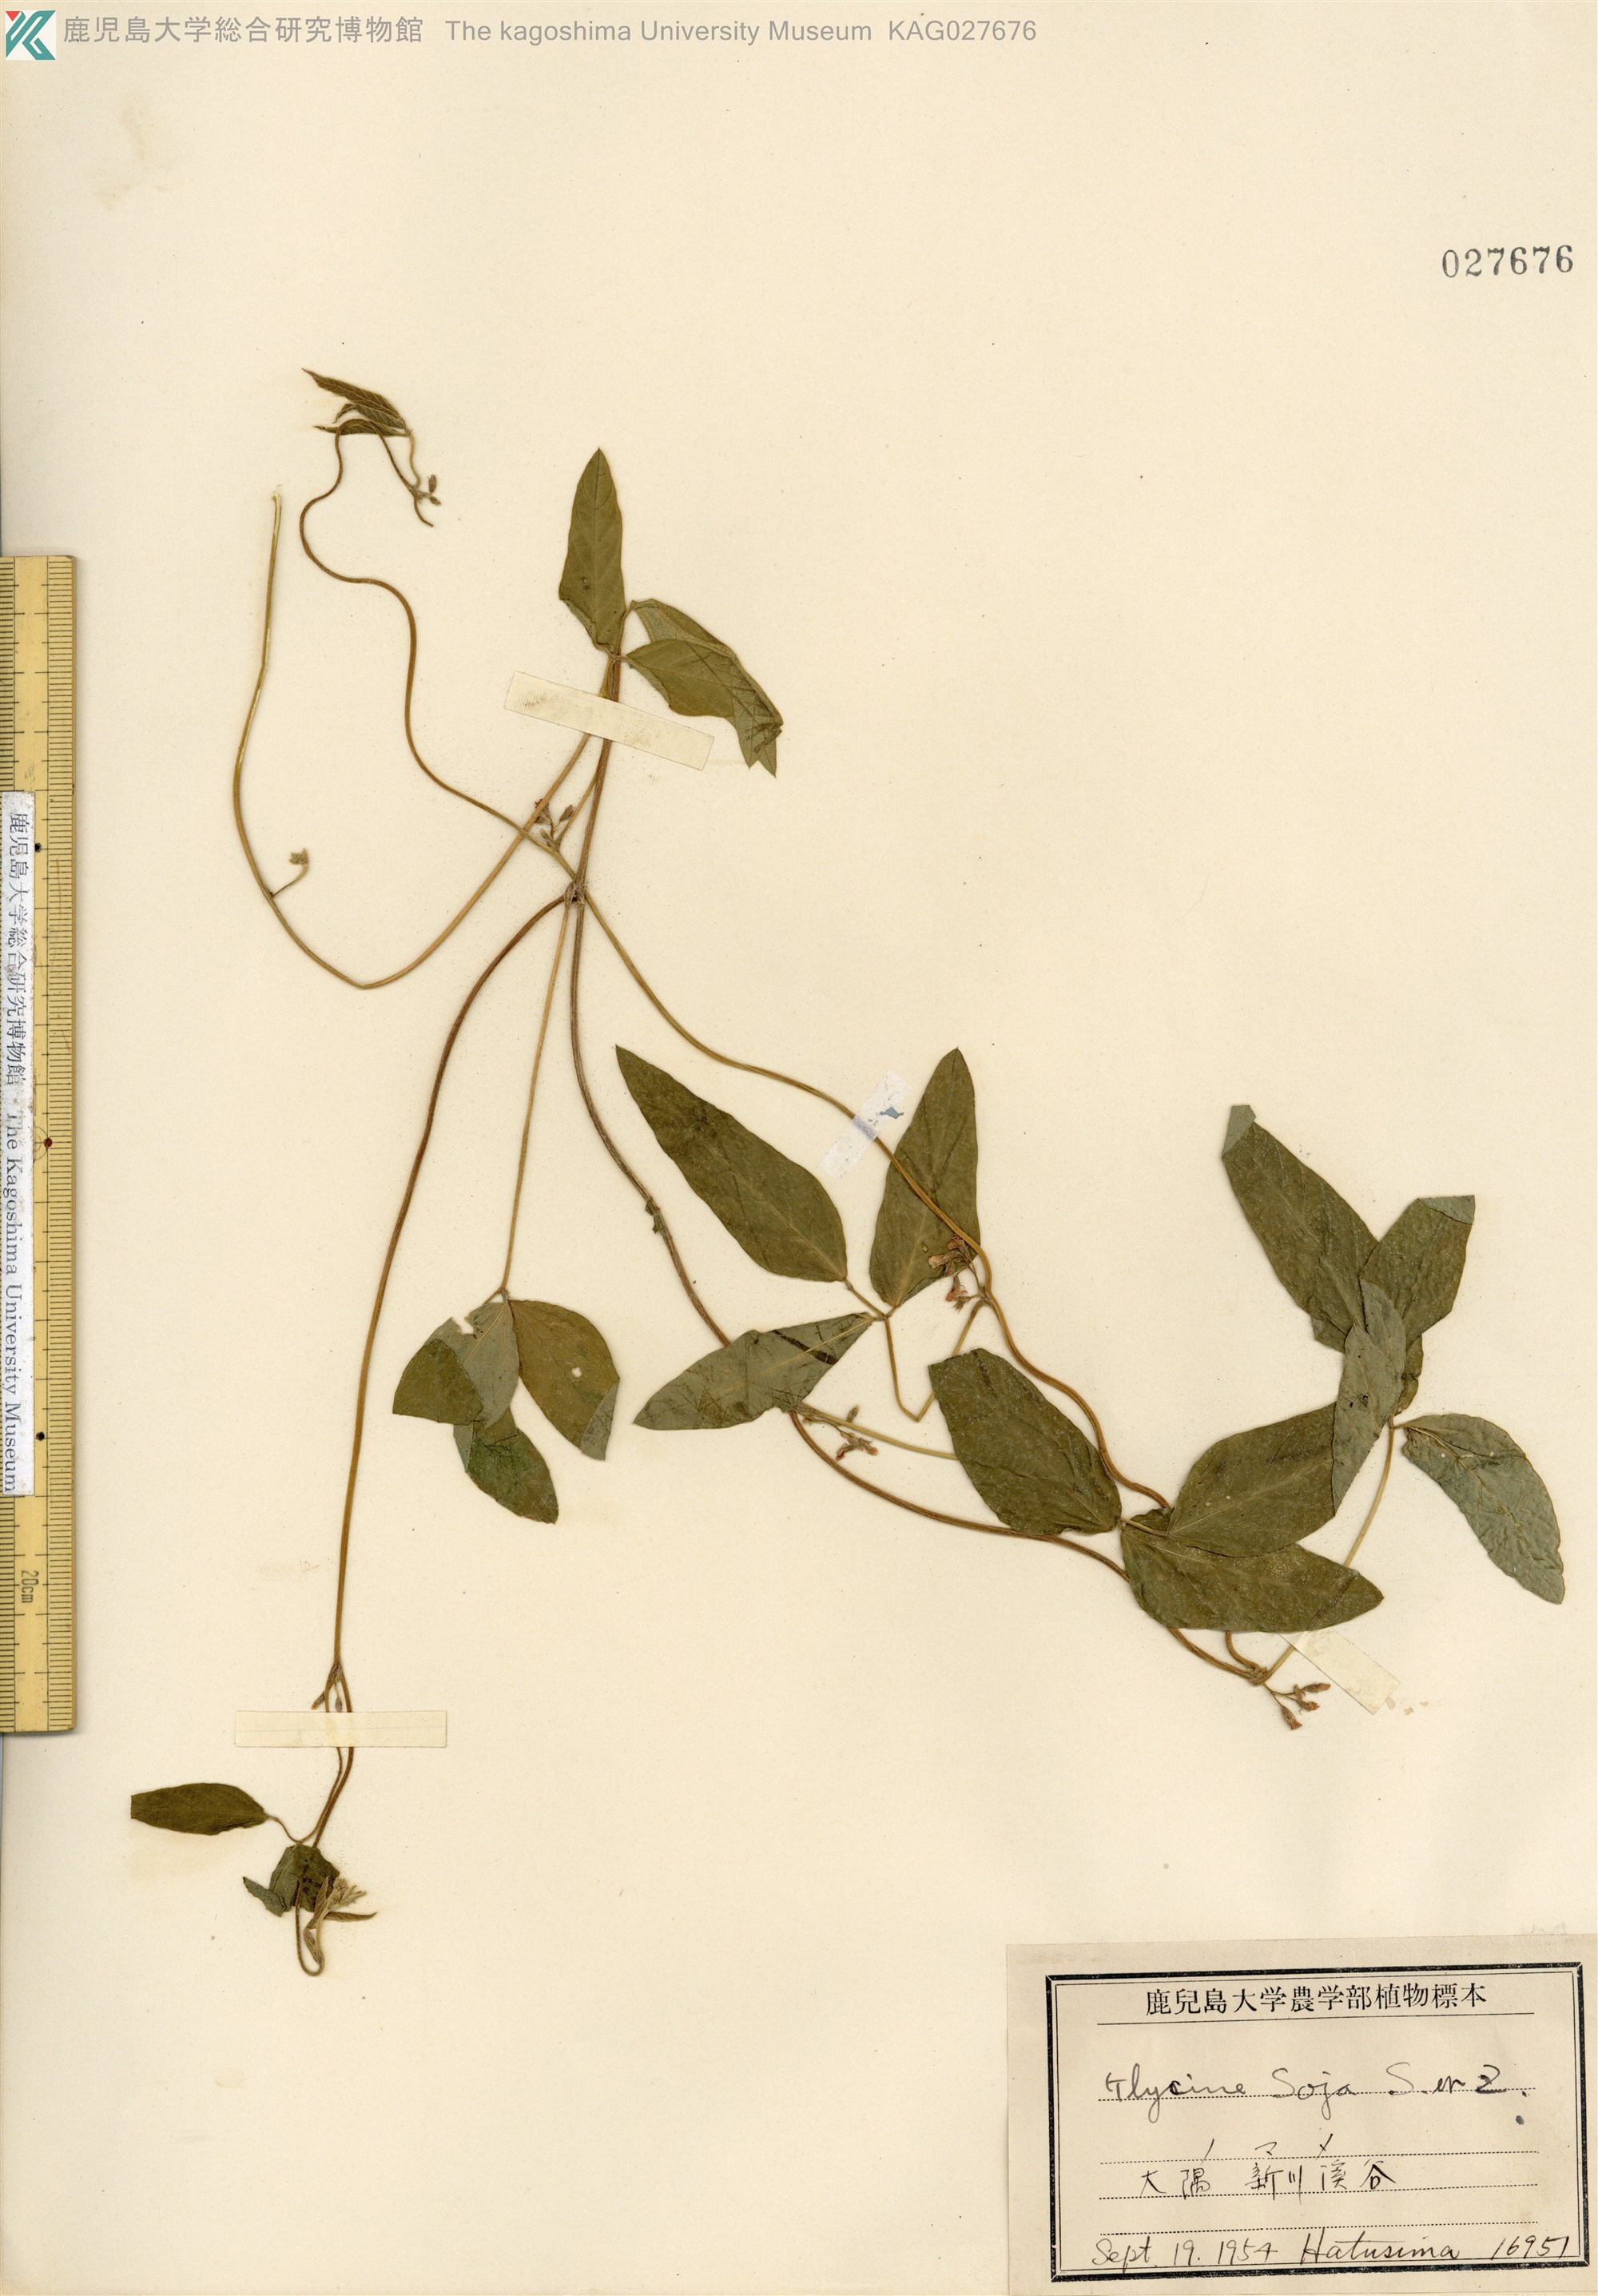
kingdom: Plantae
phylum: Tracheophyta
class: Magnoliopsida
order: Fabales
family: Fabaceae
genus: Glycine
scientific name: Glycine max
